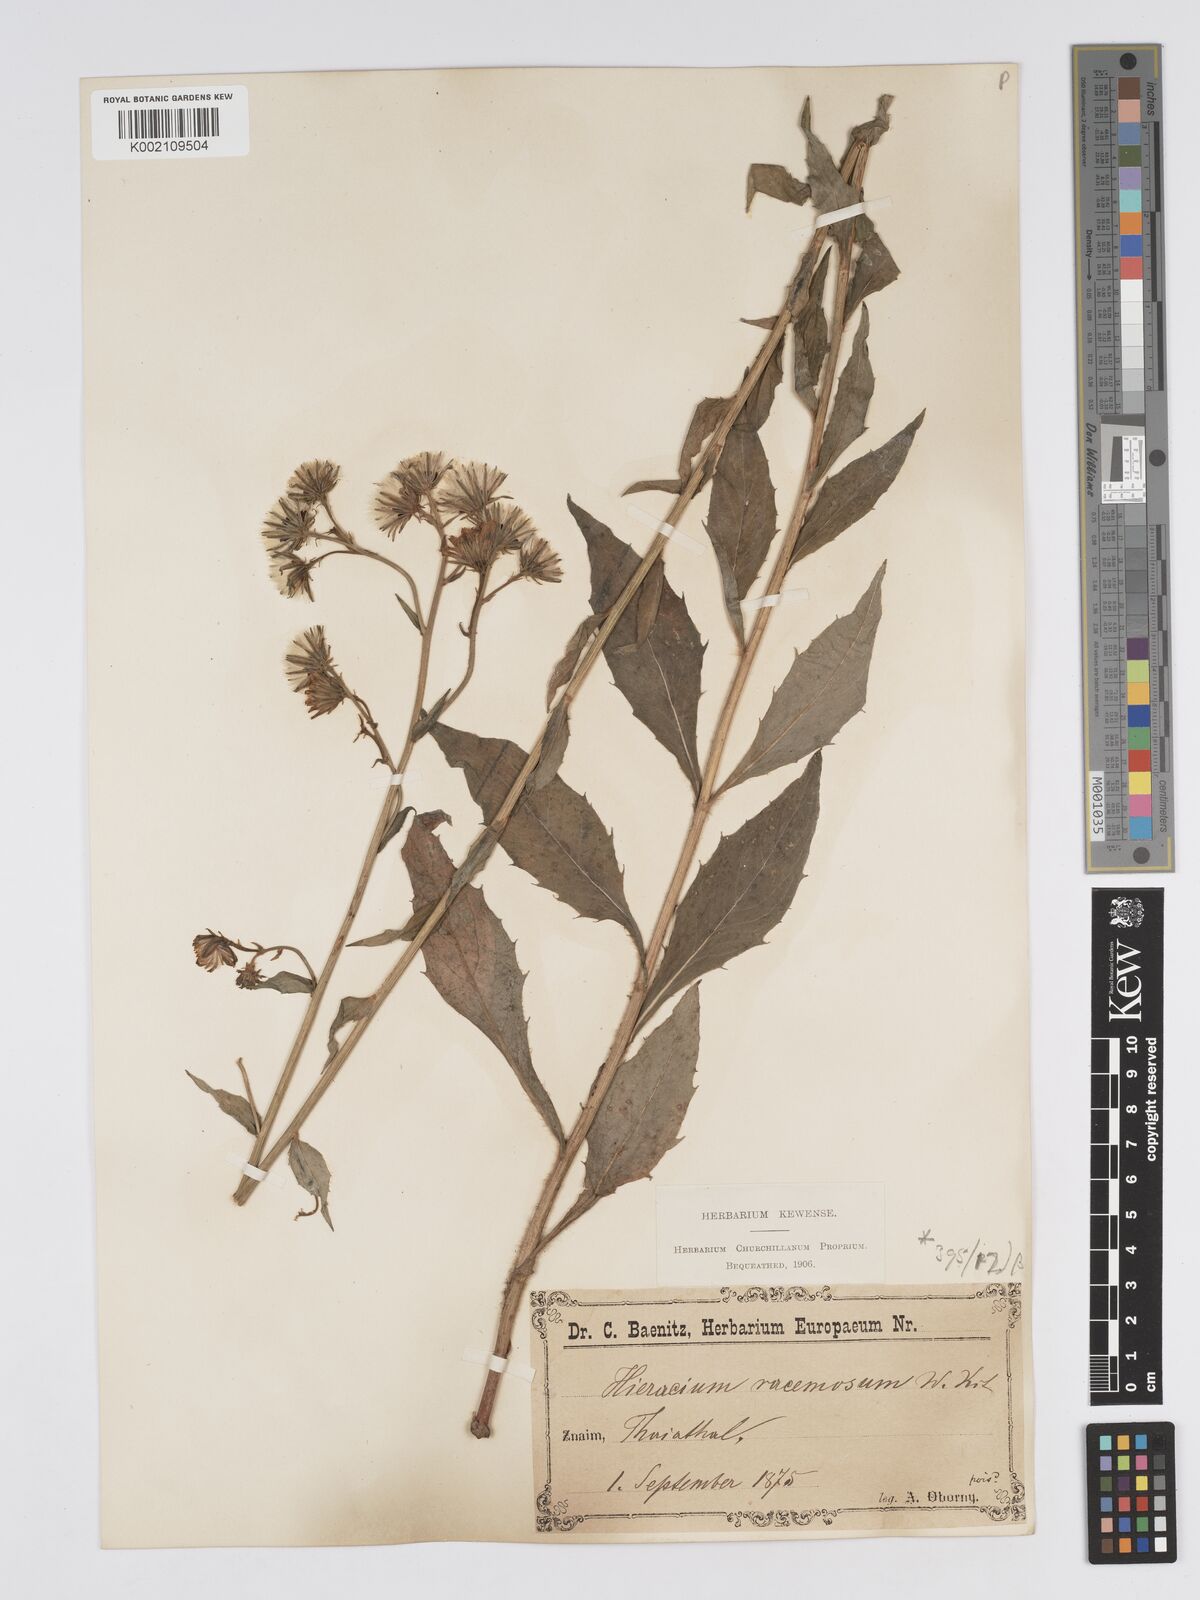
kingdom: Plantae
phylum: Tracheophyta
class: Magnoliopsida
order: Asterales
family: Asteraceae
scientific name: Asteraceae
